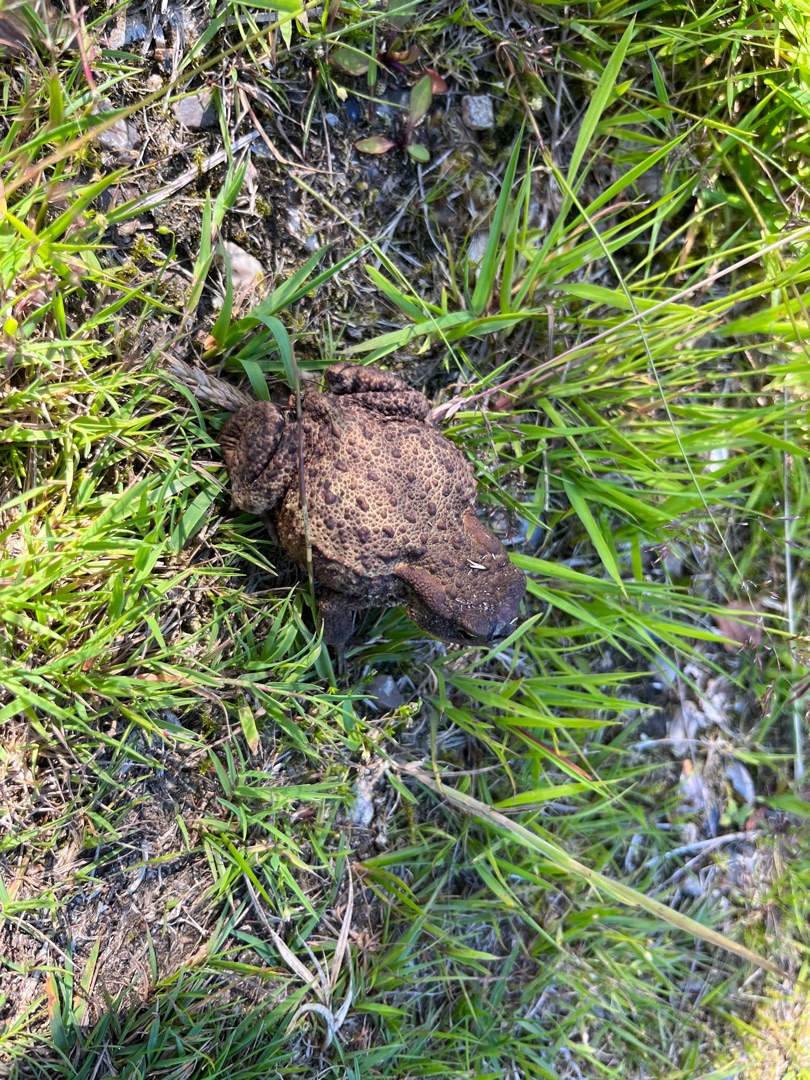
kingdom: Animalia
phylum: Chordata
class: Amphibia
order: Anura
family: Bufonidae
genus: Bufo
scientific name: Bufo bufo
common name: Skrubtudse
